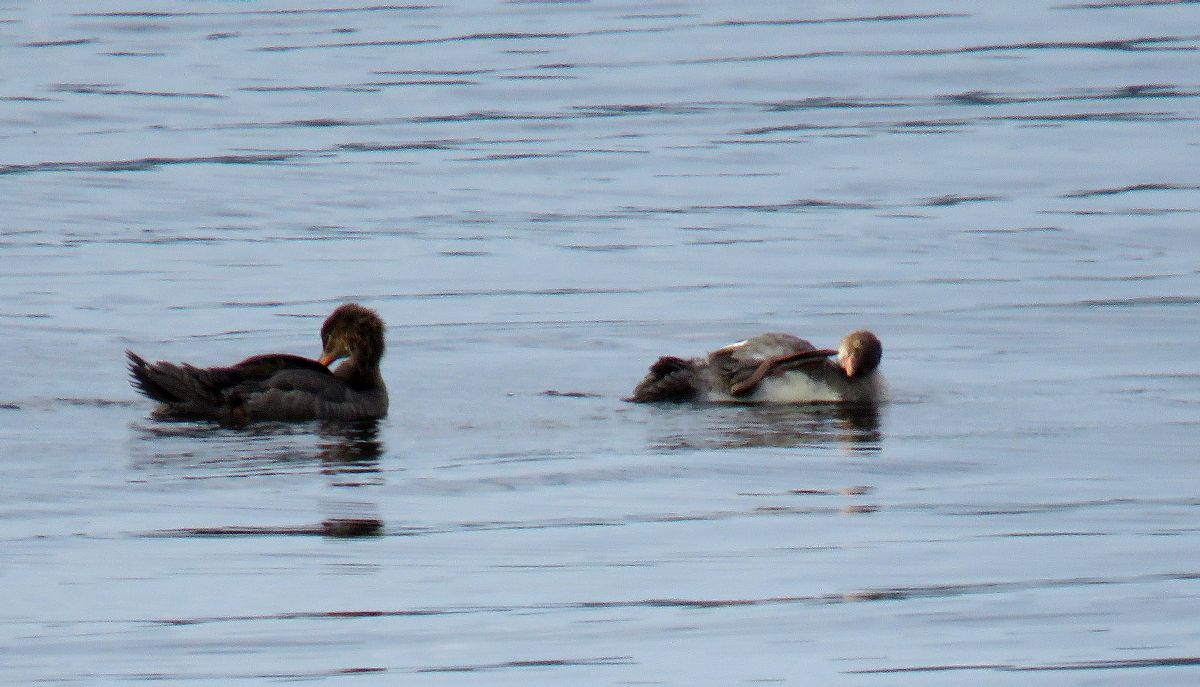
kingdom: Animalia
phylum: Chordata
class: Aves
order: Anseriformes
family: Anatidae
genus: Mergus
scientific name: Mergus serrator
